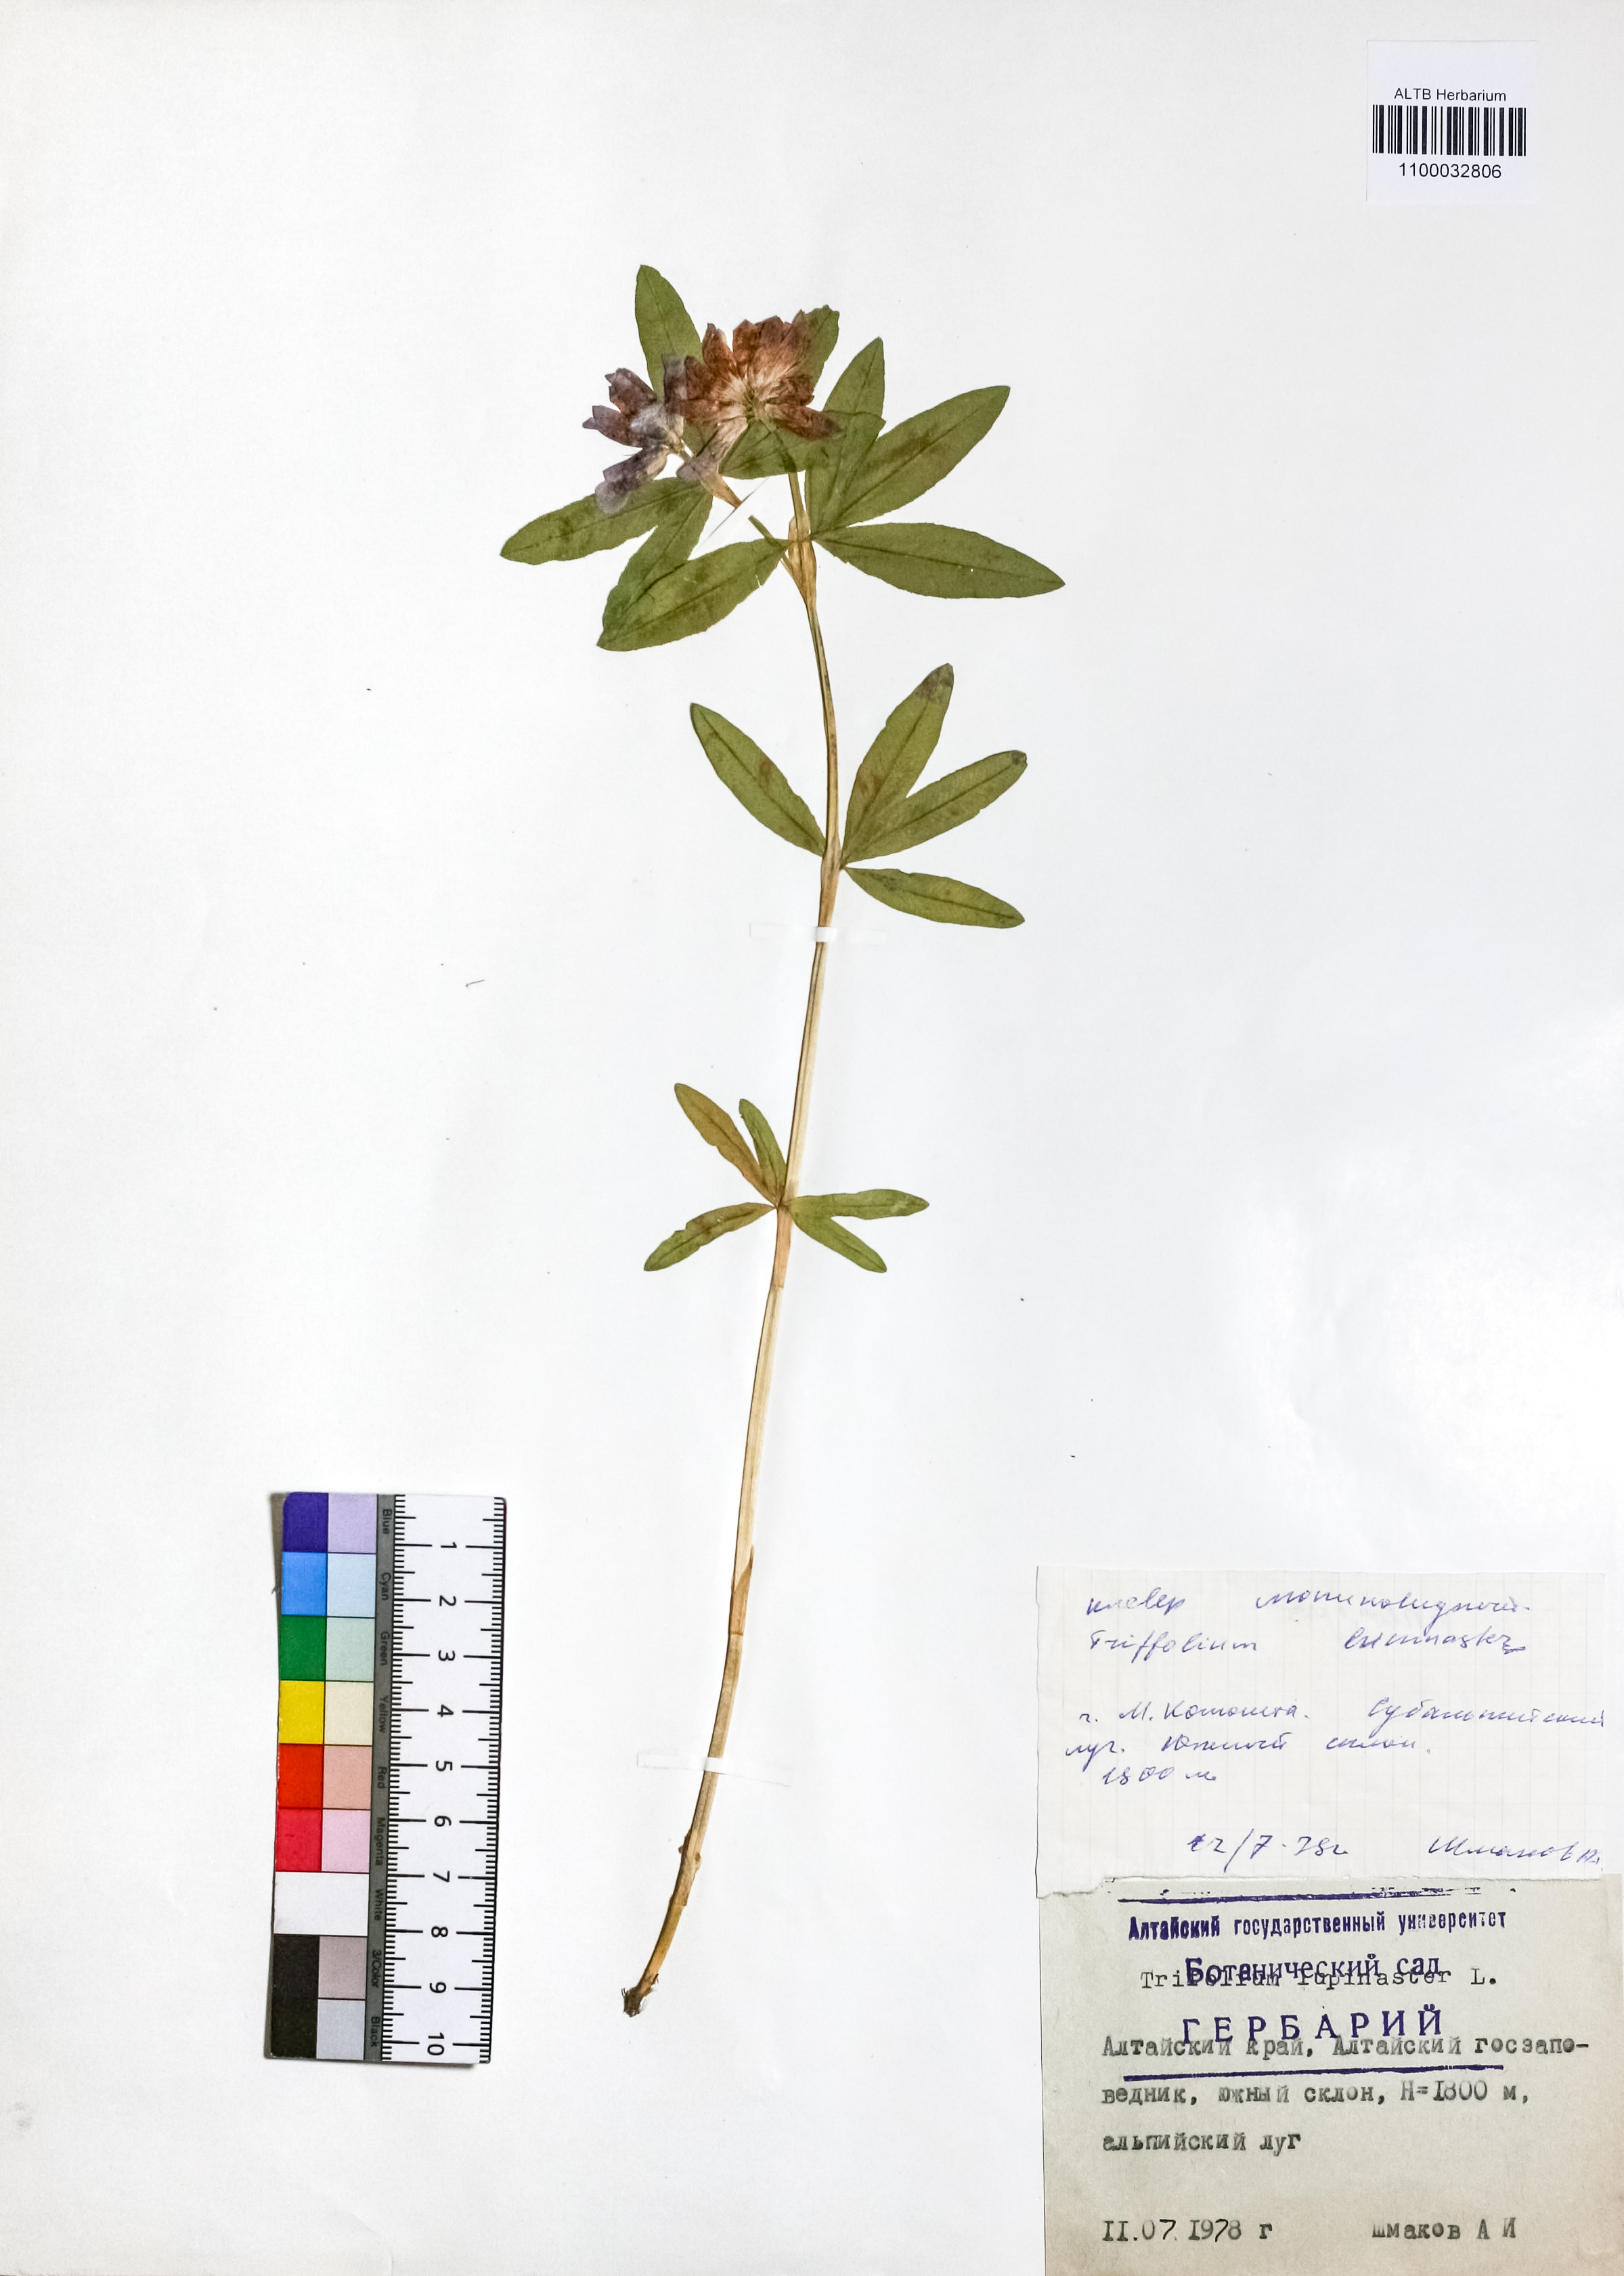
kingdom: Plantae
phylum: Tracheophyta
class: Magnoliopsida
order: Fabales
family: Fabaceae
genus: Trifolium
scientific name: Trifolium lupinaster
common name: Lupine clover
